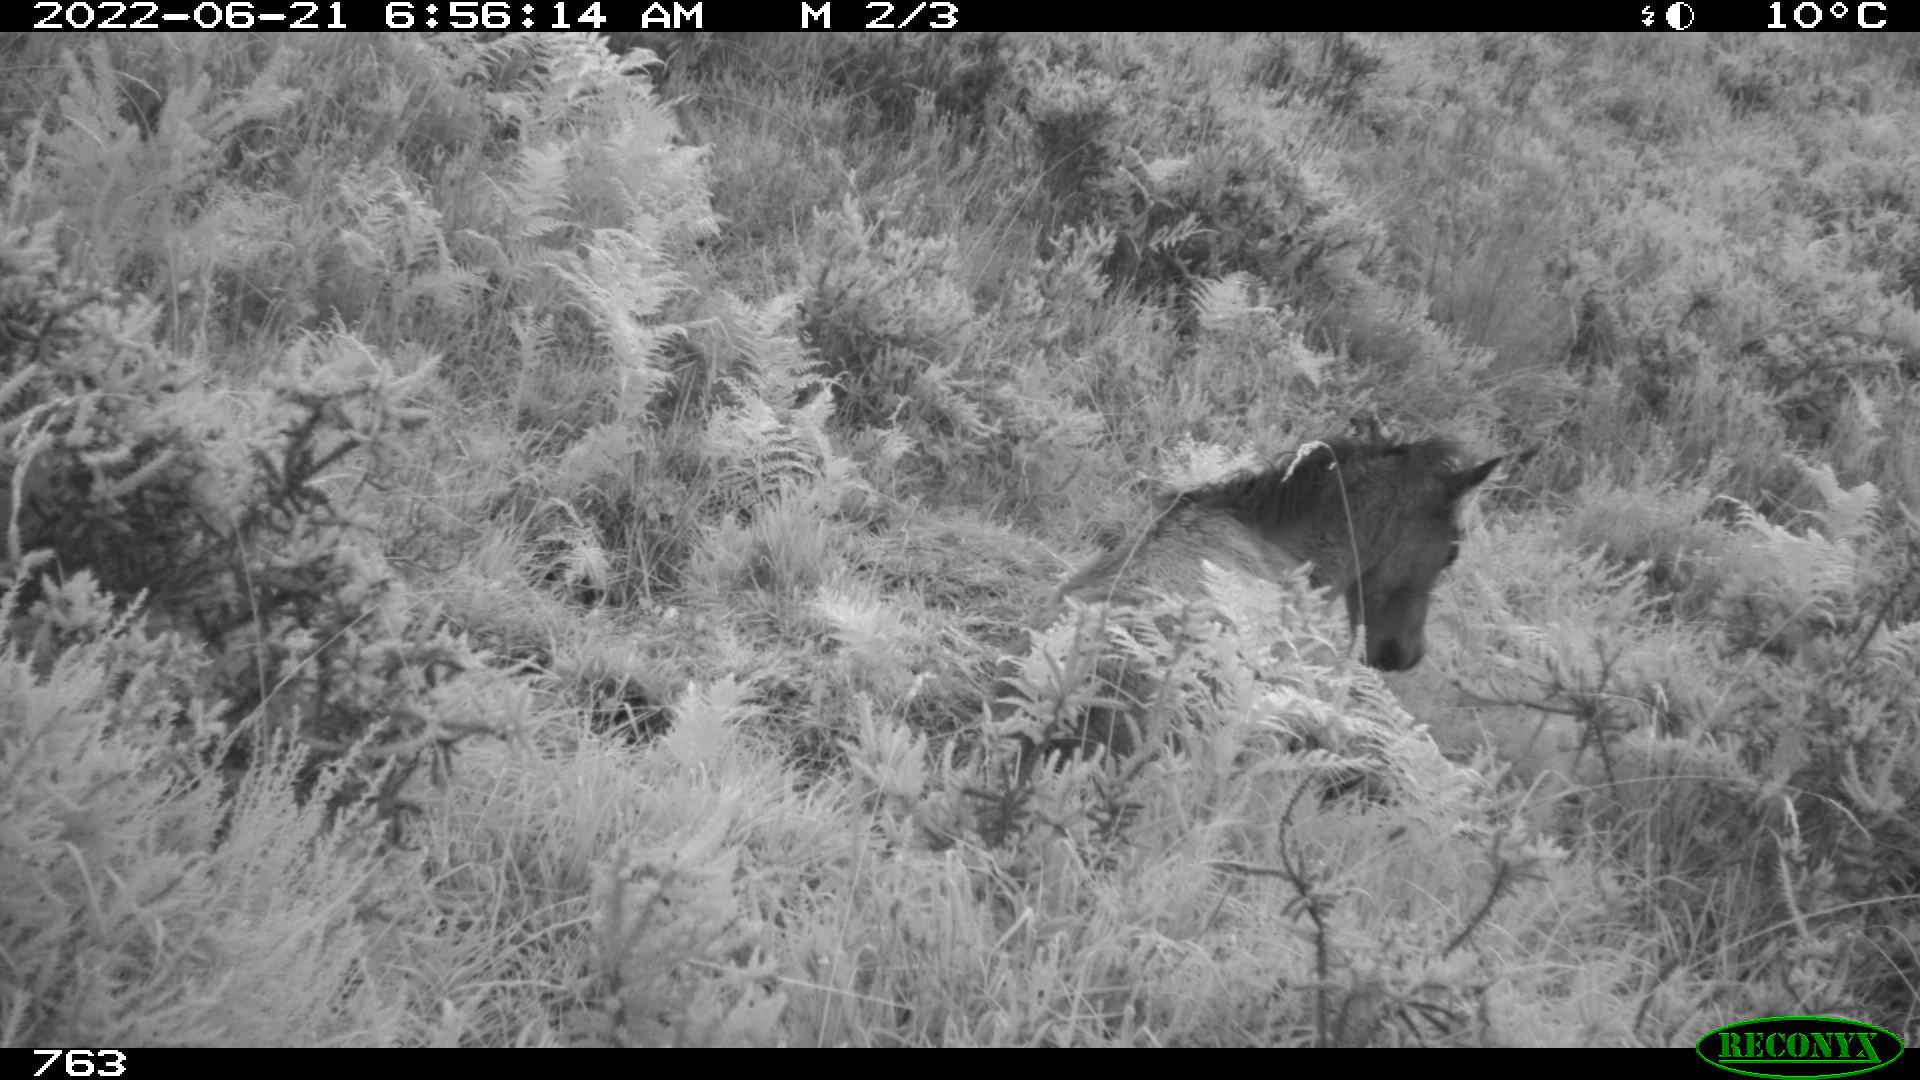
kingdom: Animalia
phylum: Chordata
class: Mammalia
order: Perissodactyla
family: Equidae
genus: Equus
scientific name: Equus caballus
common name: Horse
